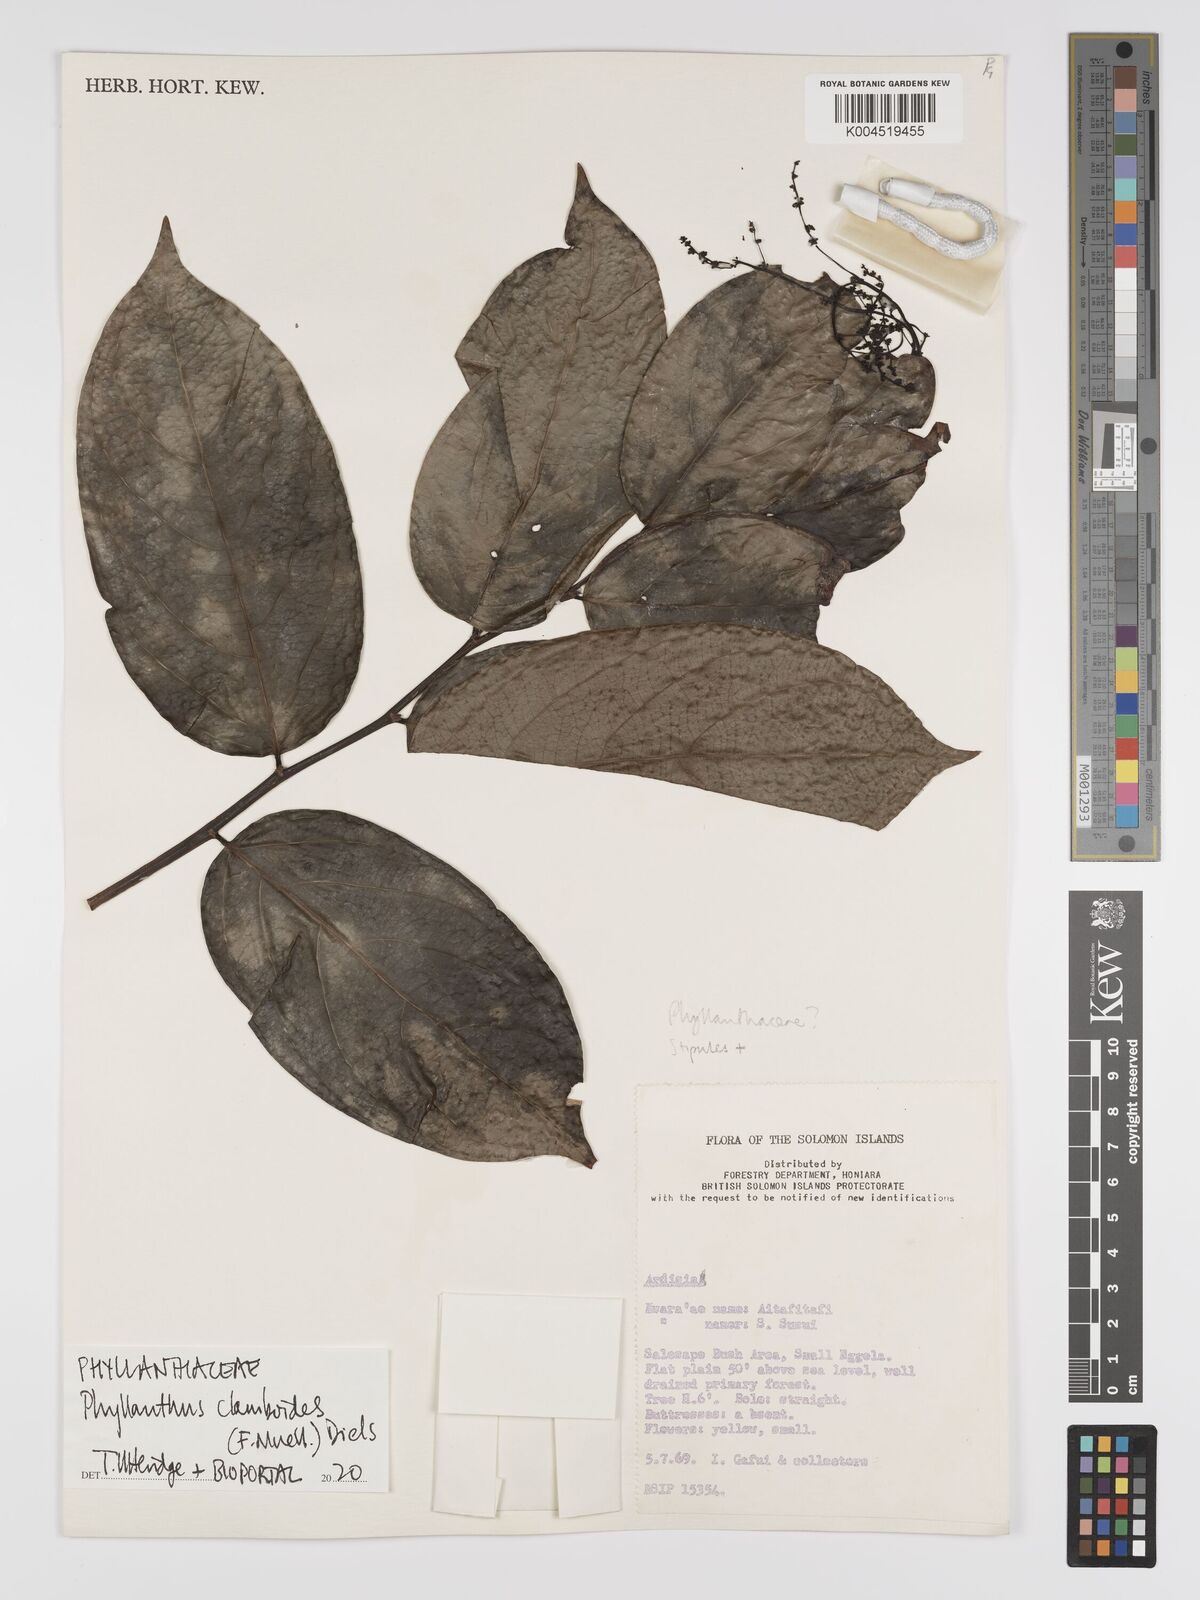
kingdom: Plantae
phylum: Tracheophyta
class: Magnoliopsida
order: Malpighiales
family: Phyllanthaceae
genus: Phyllanthus
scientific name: Phyllanthus clamboides
